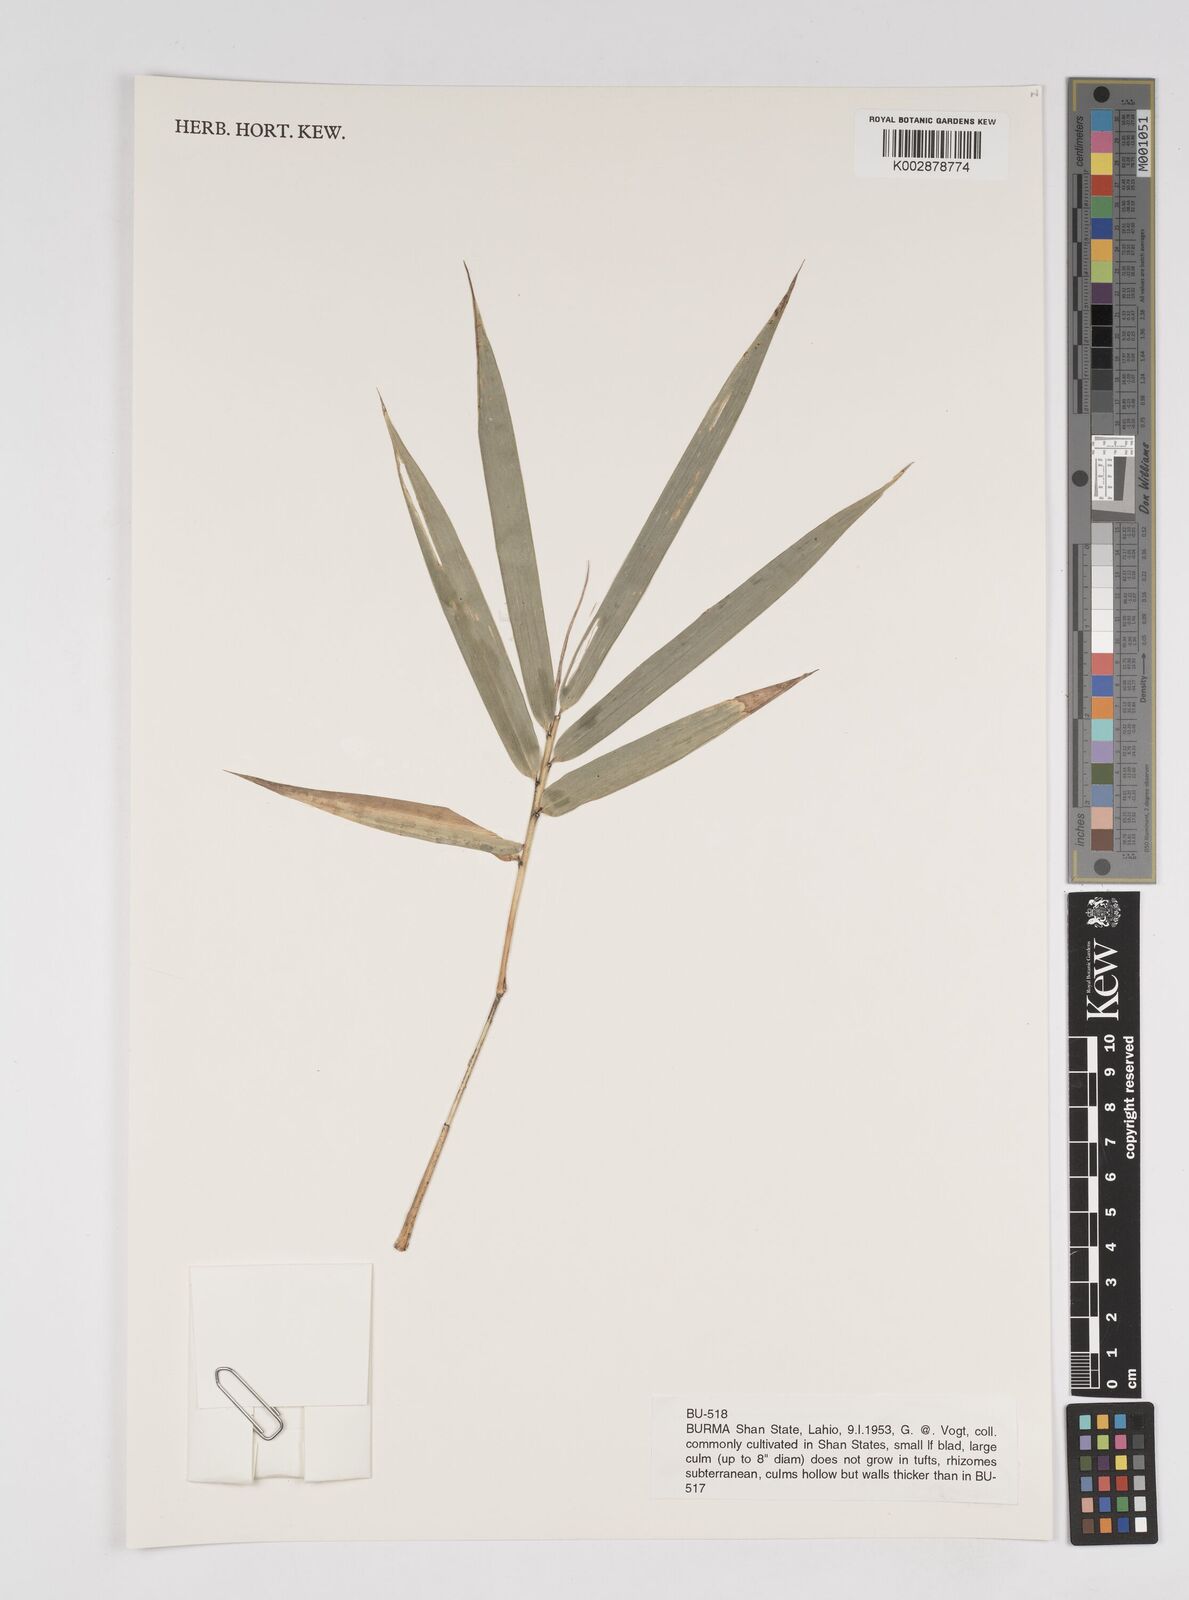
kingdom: Plantae
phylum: Tracheophyta
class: Liliopsida
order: Poales
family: Poaceae
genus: Dendrocalamus
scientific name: Dendrocalamus hamiltonii
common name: Tama bamboo
